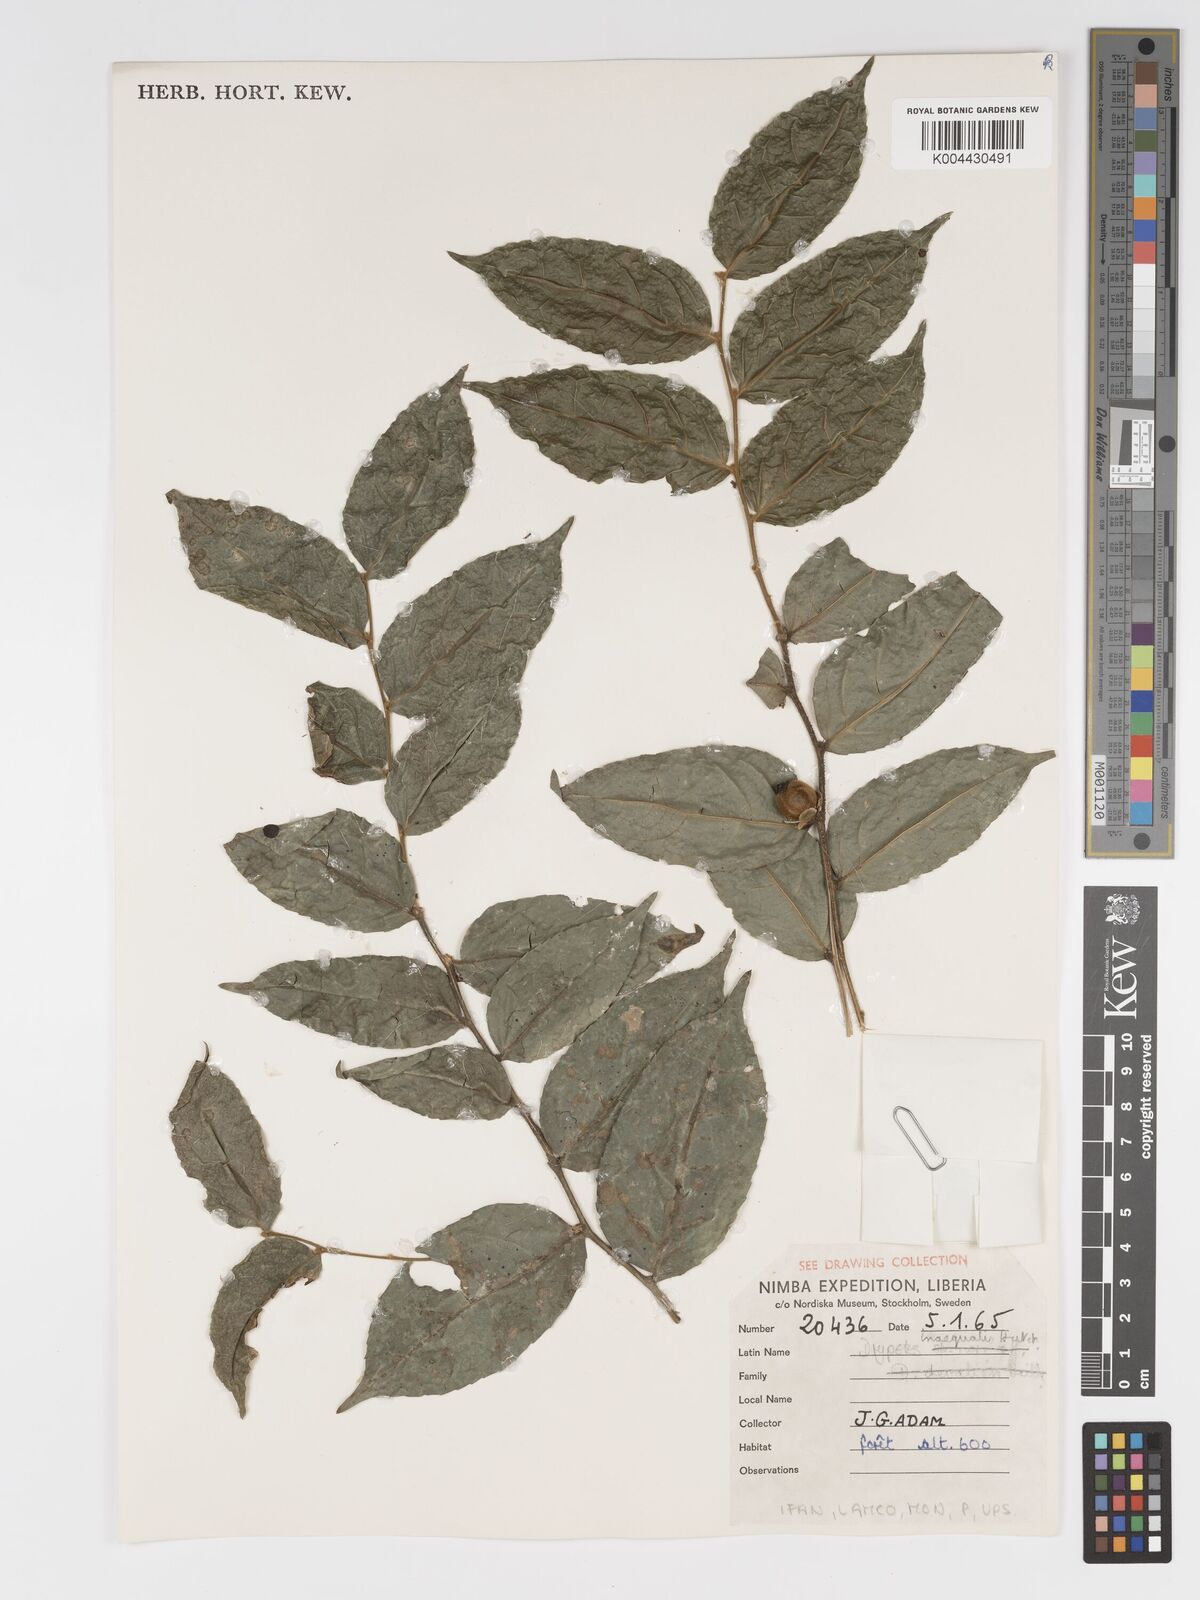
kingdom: Plantae
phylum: Tracheophyta
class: Magnoliopsida
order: Malpighiales
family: Putranjivaceae
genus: Drypetes
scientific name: Drypetes inaequalis
